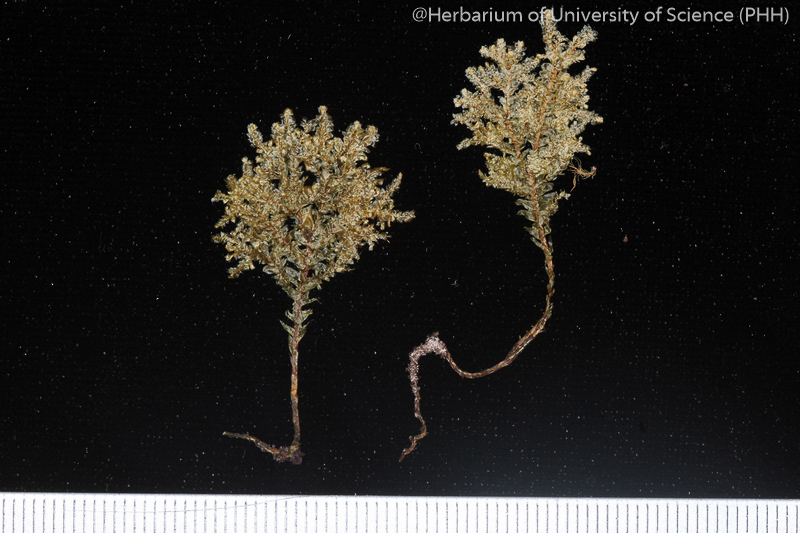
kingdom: Plantae
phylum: Bryophyta
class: Bryopsida
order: Hypnales
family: Neckeraceae
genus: Homaliodendron
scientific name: Homaliodendron flabellatum
